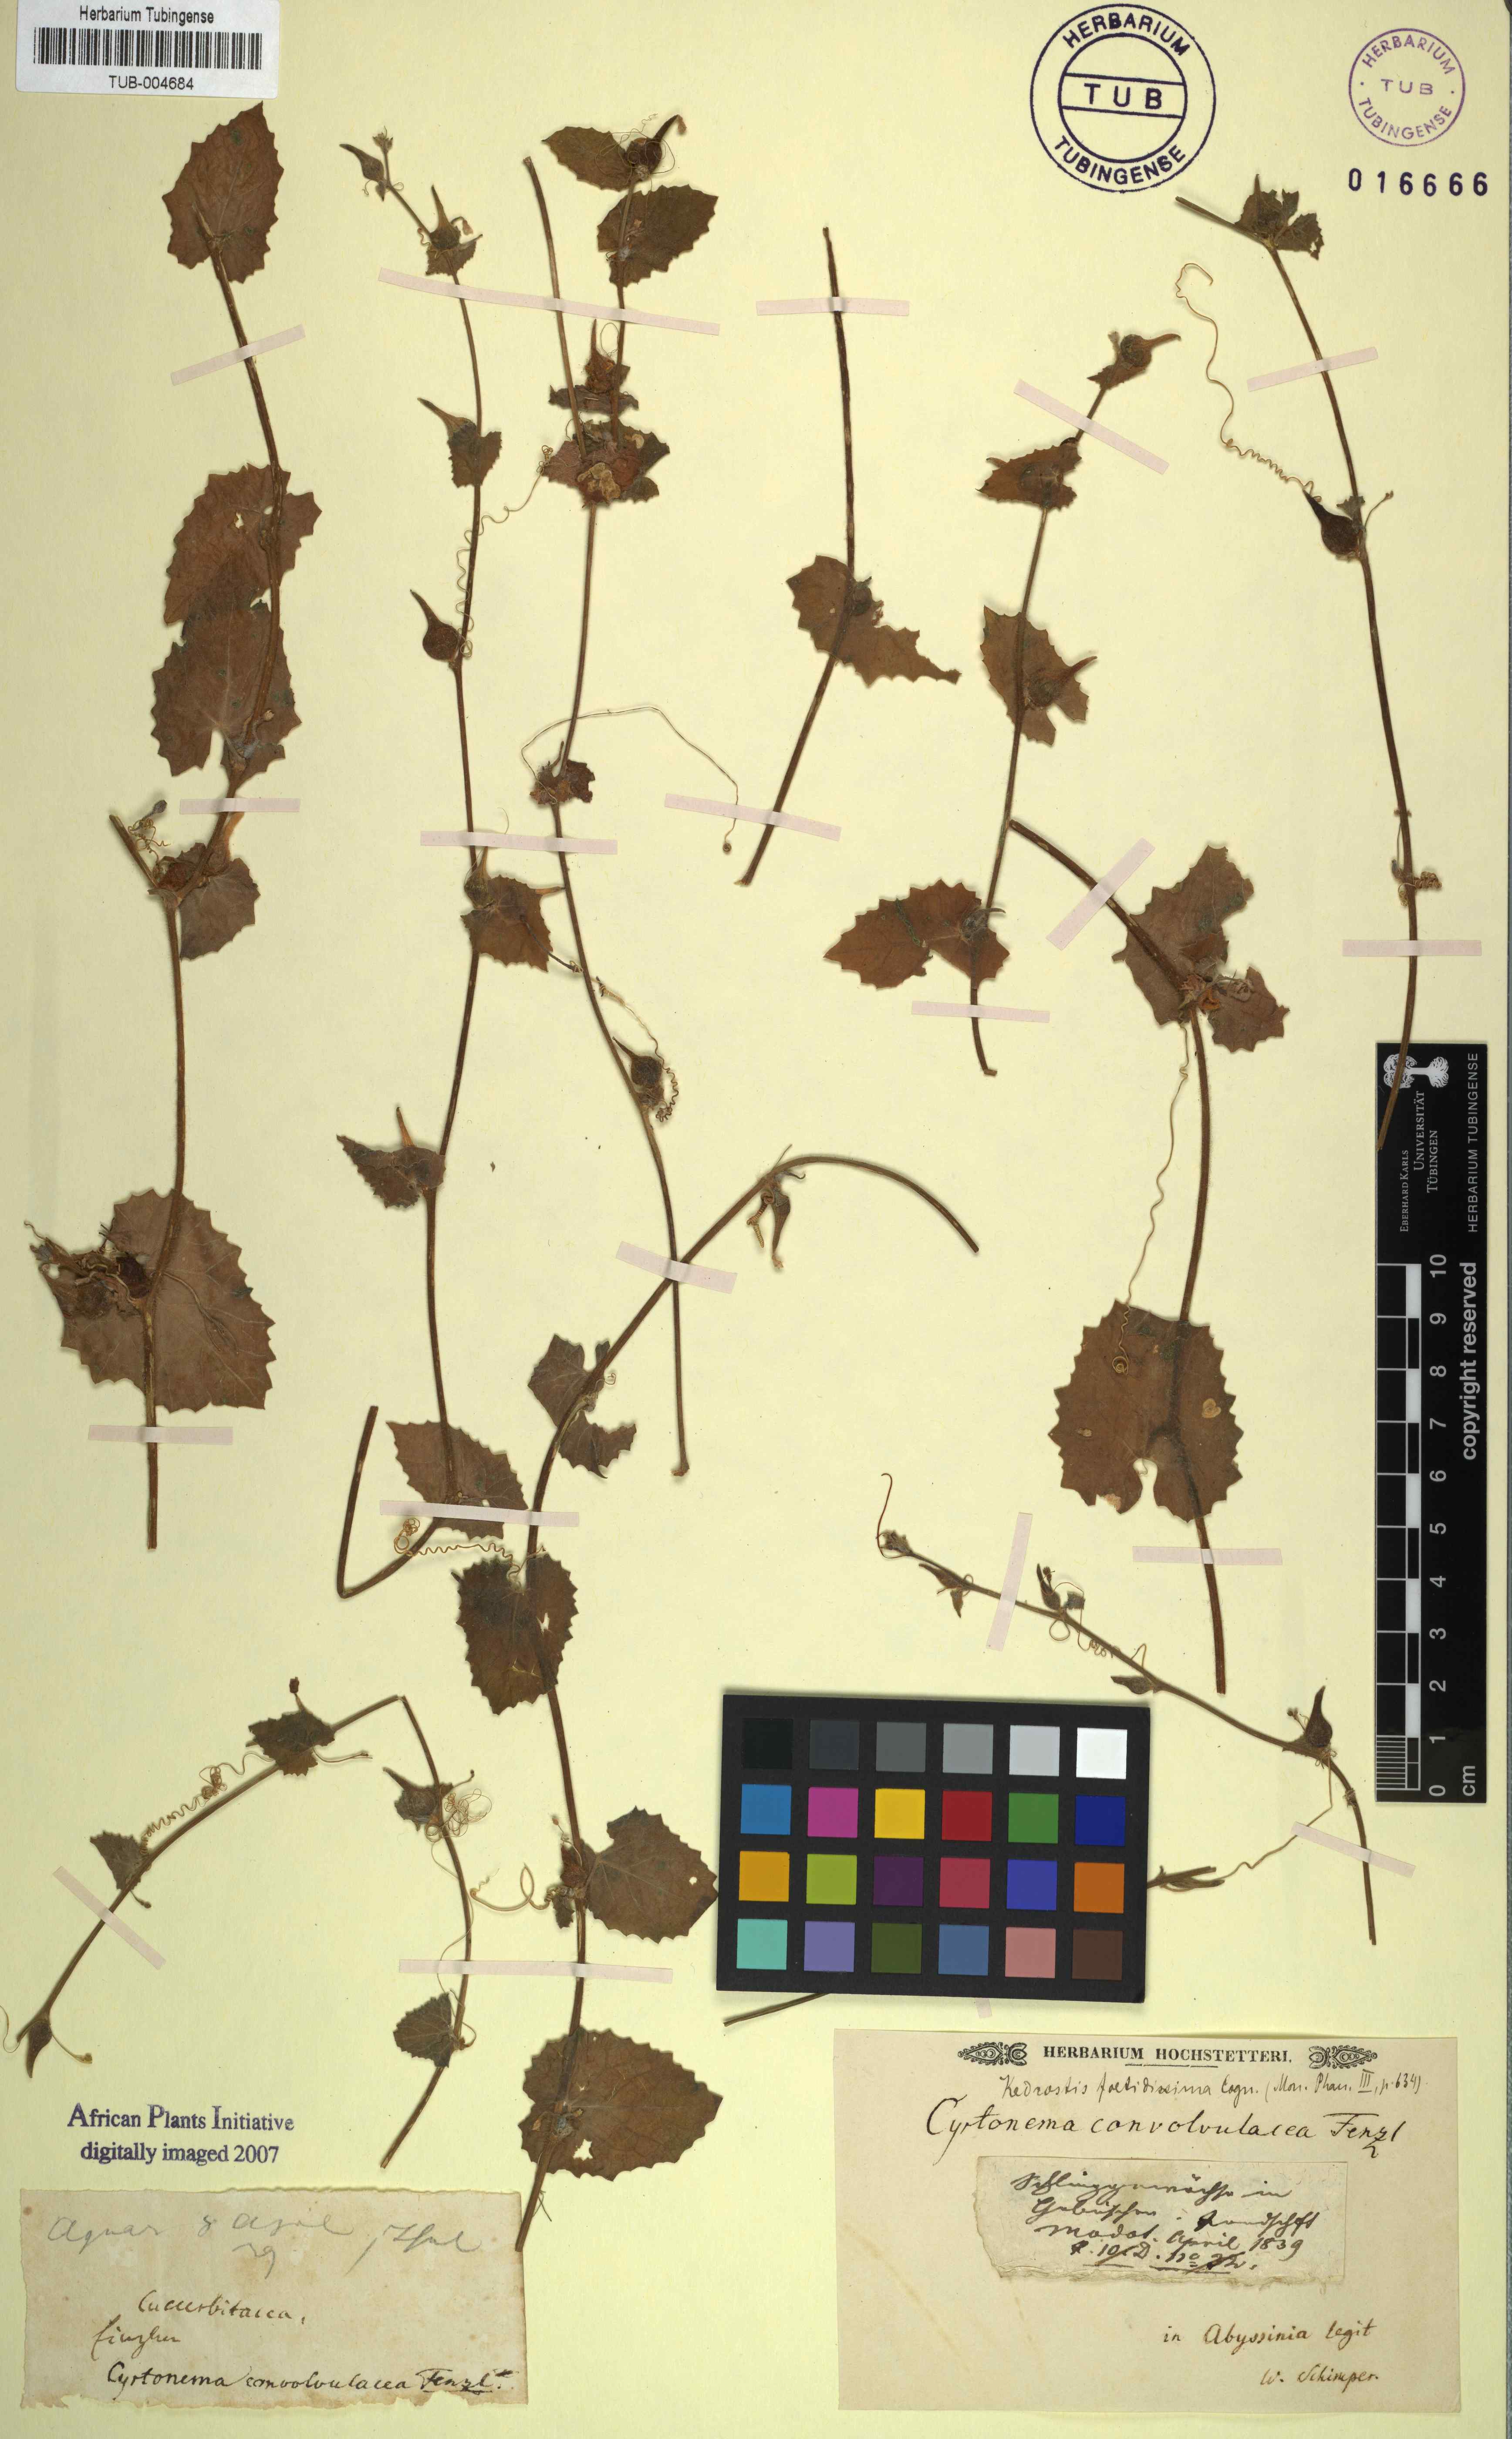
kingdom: Plantae
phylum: Tracheophyta
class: Magnoliopsida
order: Cucurbitales
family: Cucurbitaceae
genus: Kedrostis
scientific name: Kedrostis foetidissima
